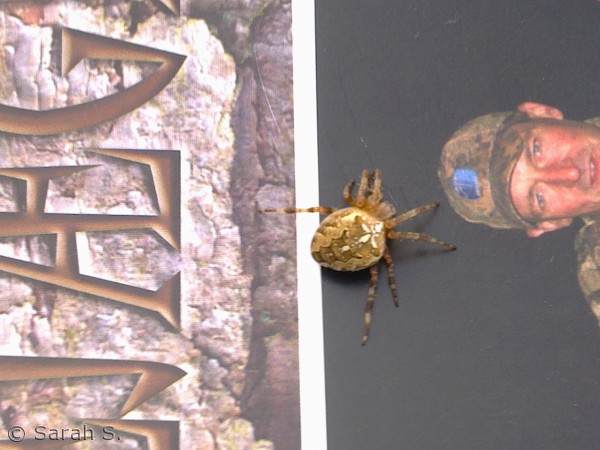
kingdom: Animalia
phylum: Arthropoda
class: Arachnida
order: Araneae
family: Araneidae
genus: Araneus
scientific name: Araneus diadematus
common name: Korsedderkop
